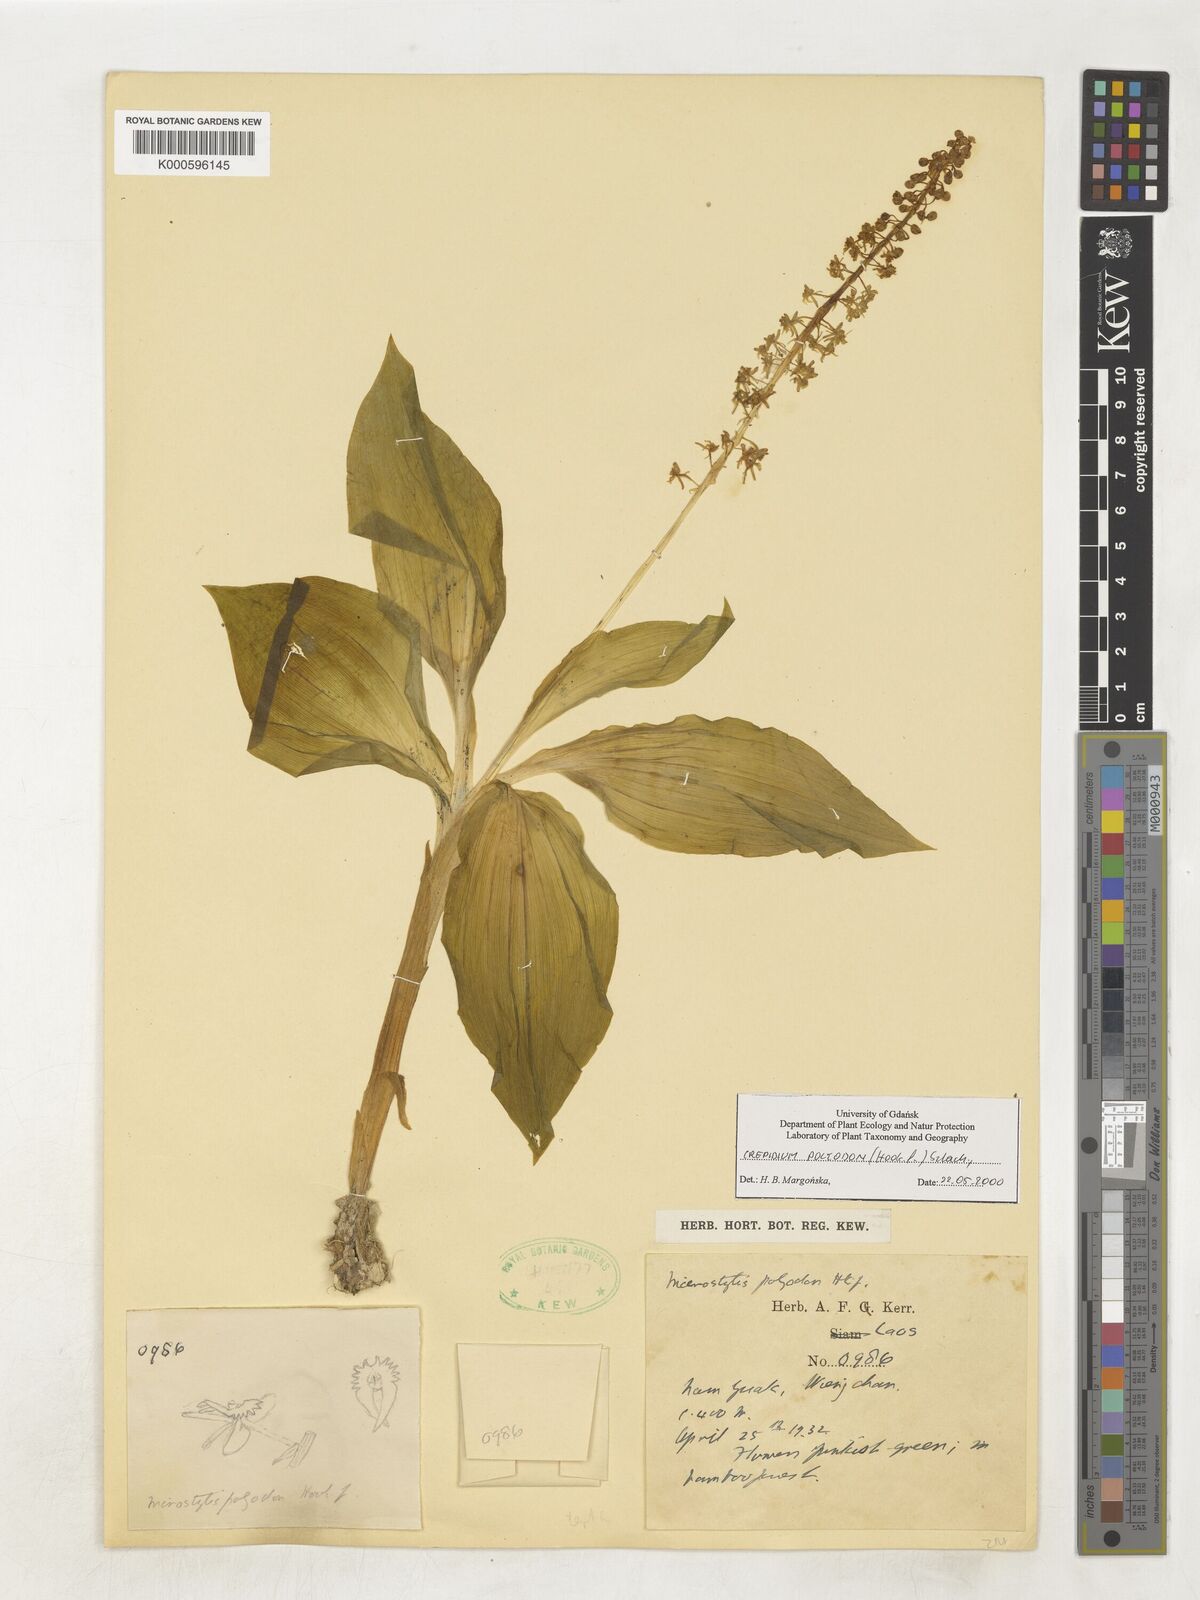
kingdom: Plantae
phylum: Tracheophyta
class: Liliopsida
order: Asparagales
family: Orchidaceae
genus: Crepidium
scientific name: Crepidium polyodon
